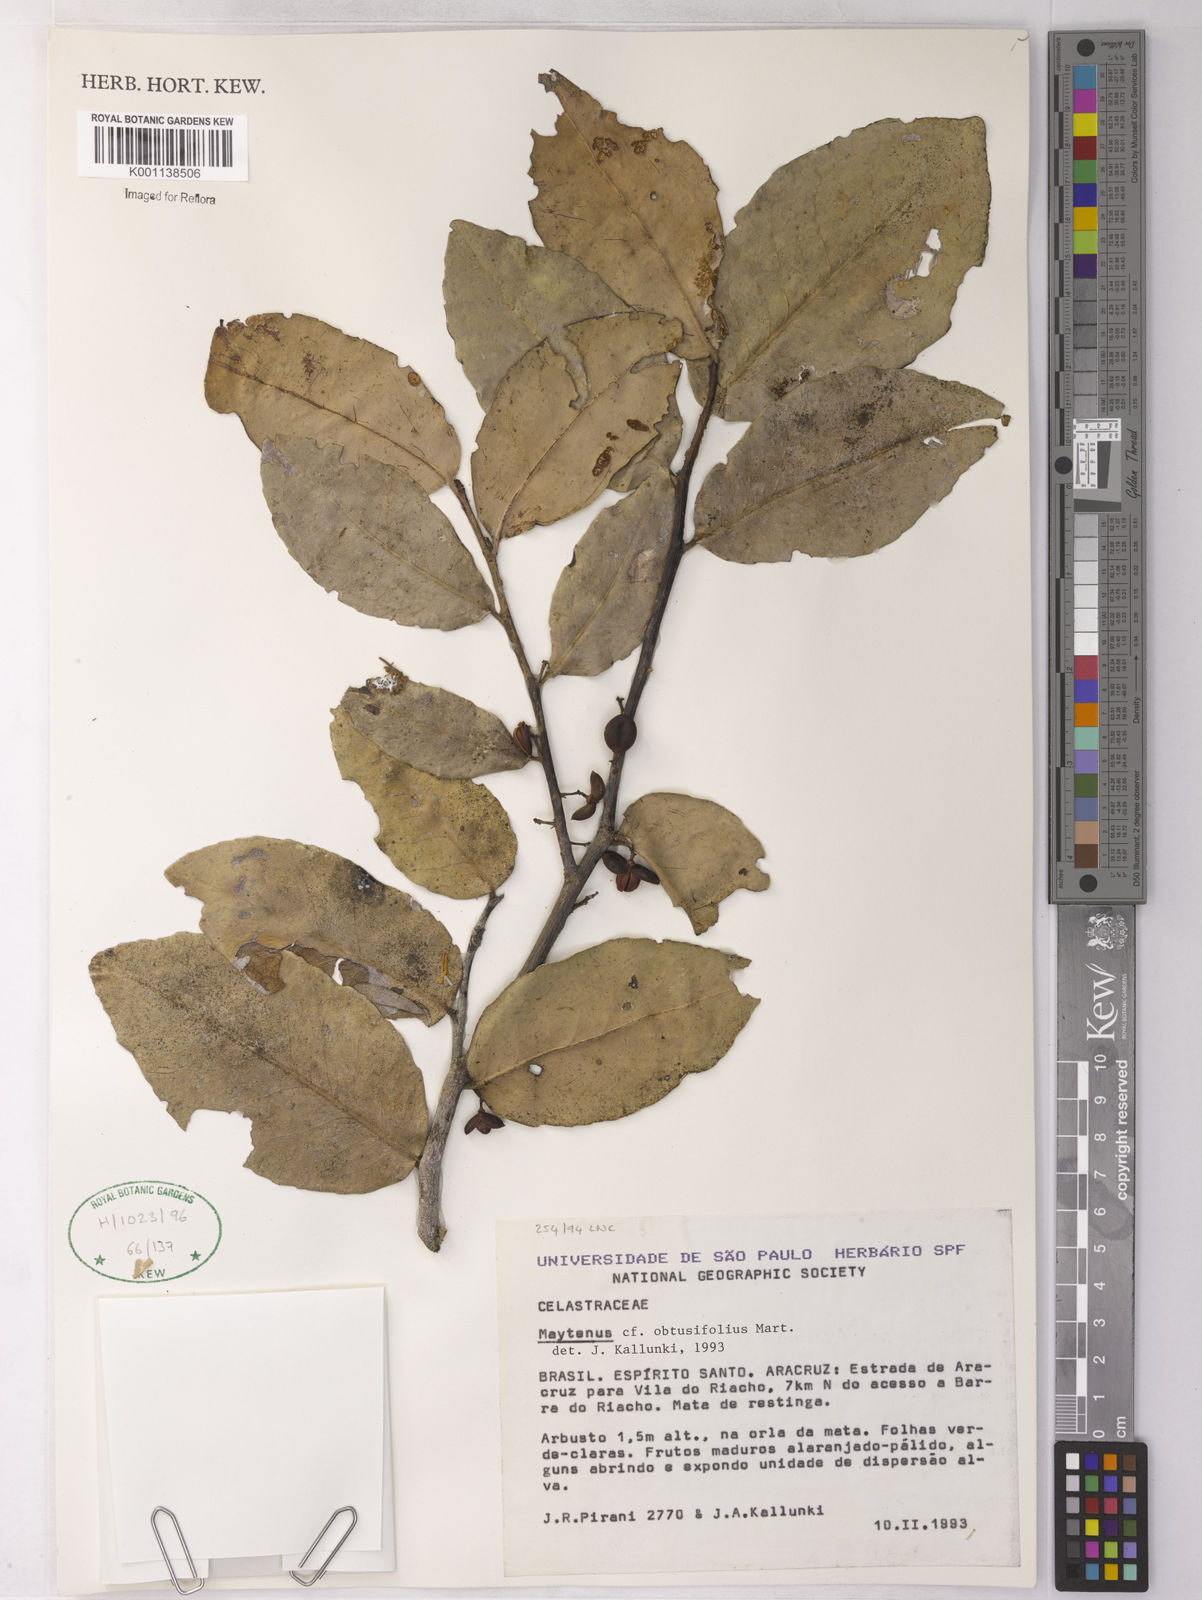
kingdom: Plantae
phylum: Tracheophyta
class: Magnoliopsida
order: Celastrales
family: Celastraceae
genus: Monteverdia
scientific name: Monteverdia obtusifolia
